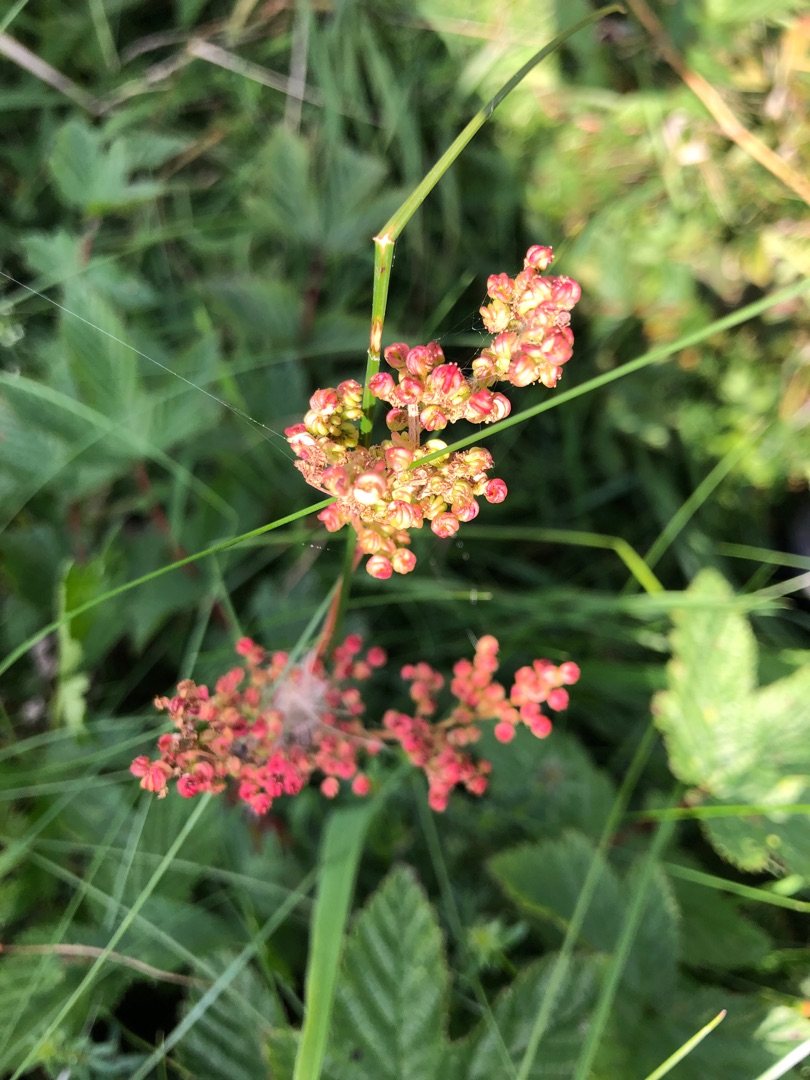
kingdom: Plantae
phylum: Tracheophyta
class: Magnoliopsida
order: Rosales
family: Rosaceae
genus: Filipendula
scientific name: Filipendula ulmaria
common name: Almindelig mjødurt
